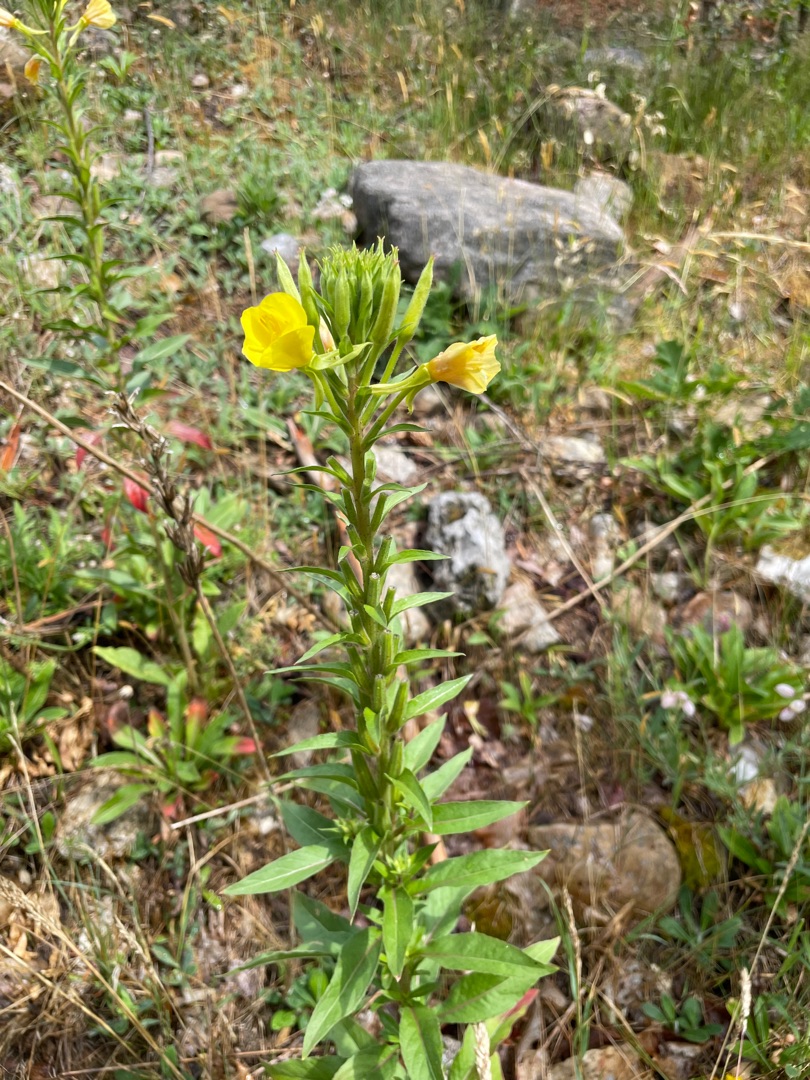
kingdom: Plantae
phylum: Tracheophyta
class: Magnoliopsida
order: Myrtales
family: Onagraceae
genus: Oenothera
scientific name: Oenothera
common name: Natlysslægten
